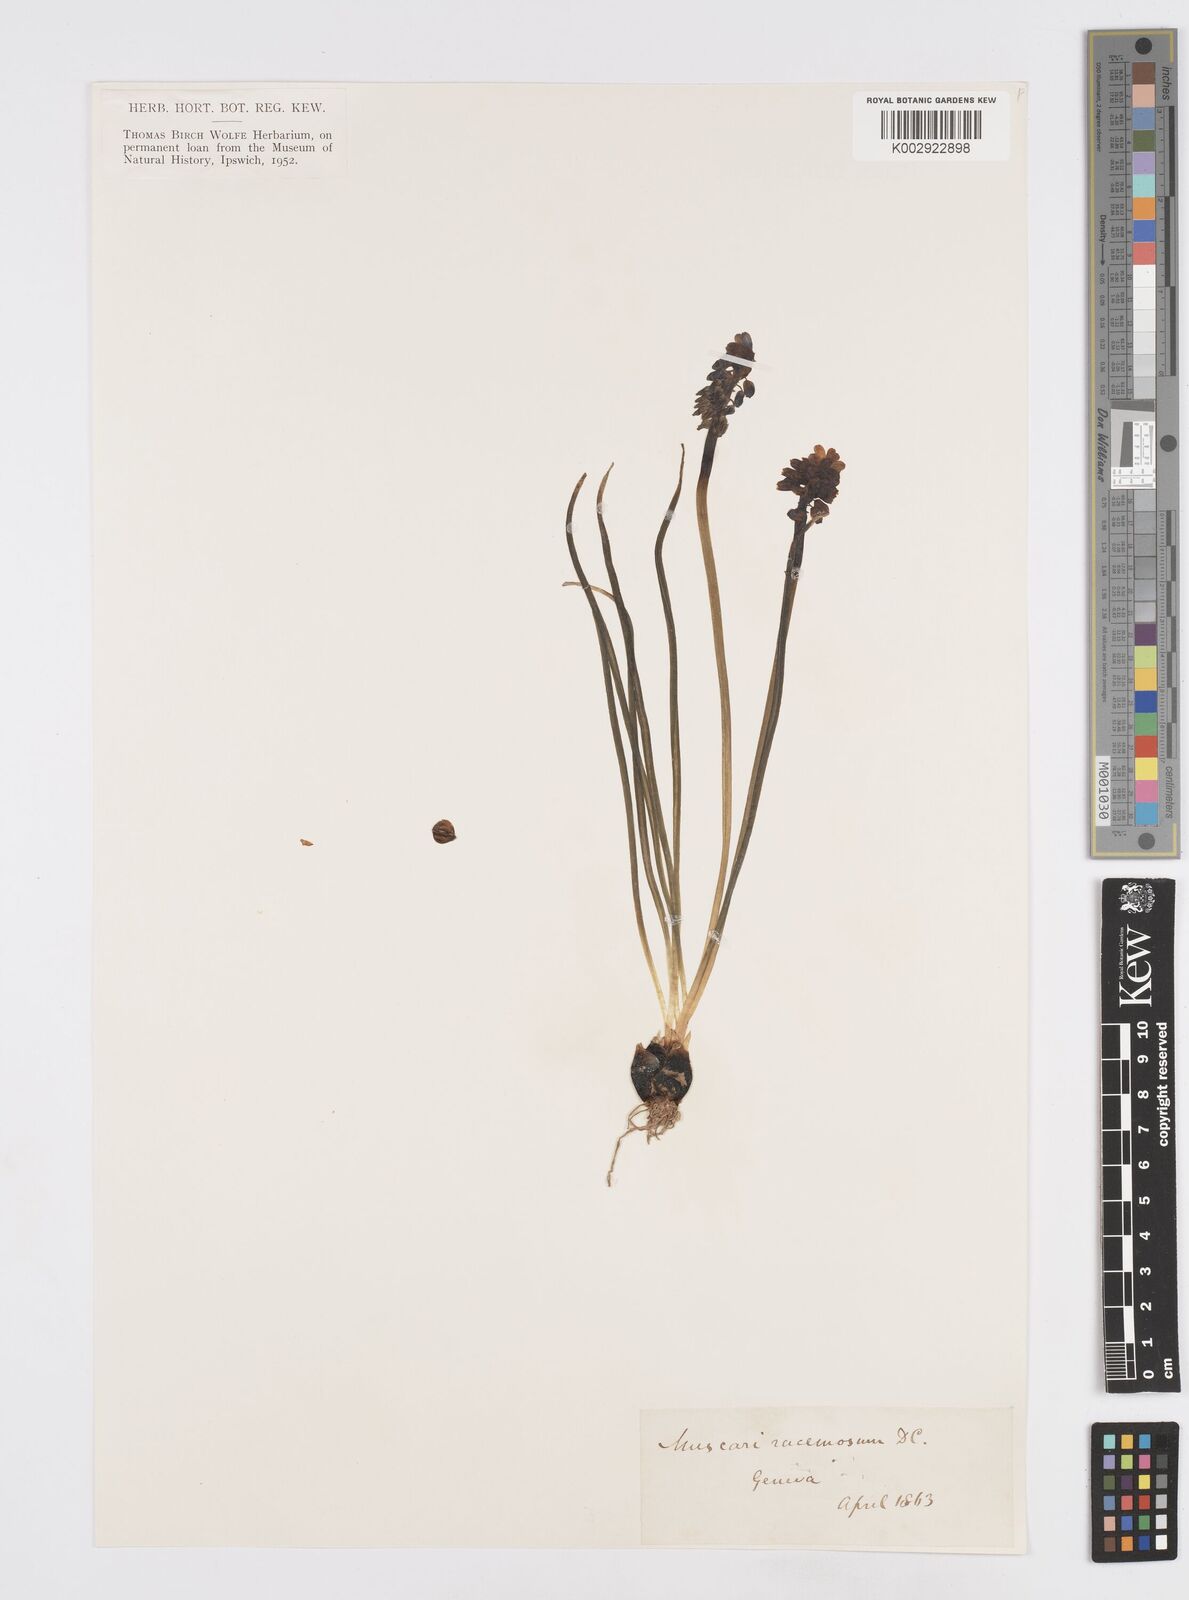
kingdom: Plantae
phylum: Tracheophyta
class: Liliopsida
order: Asparagales
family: Asparagaceae
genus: Muscarimia
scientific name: Muscarimia muscari
